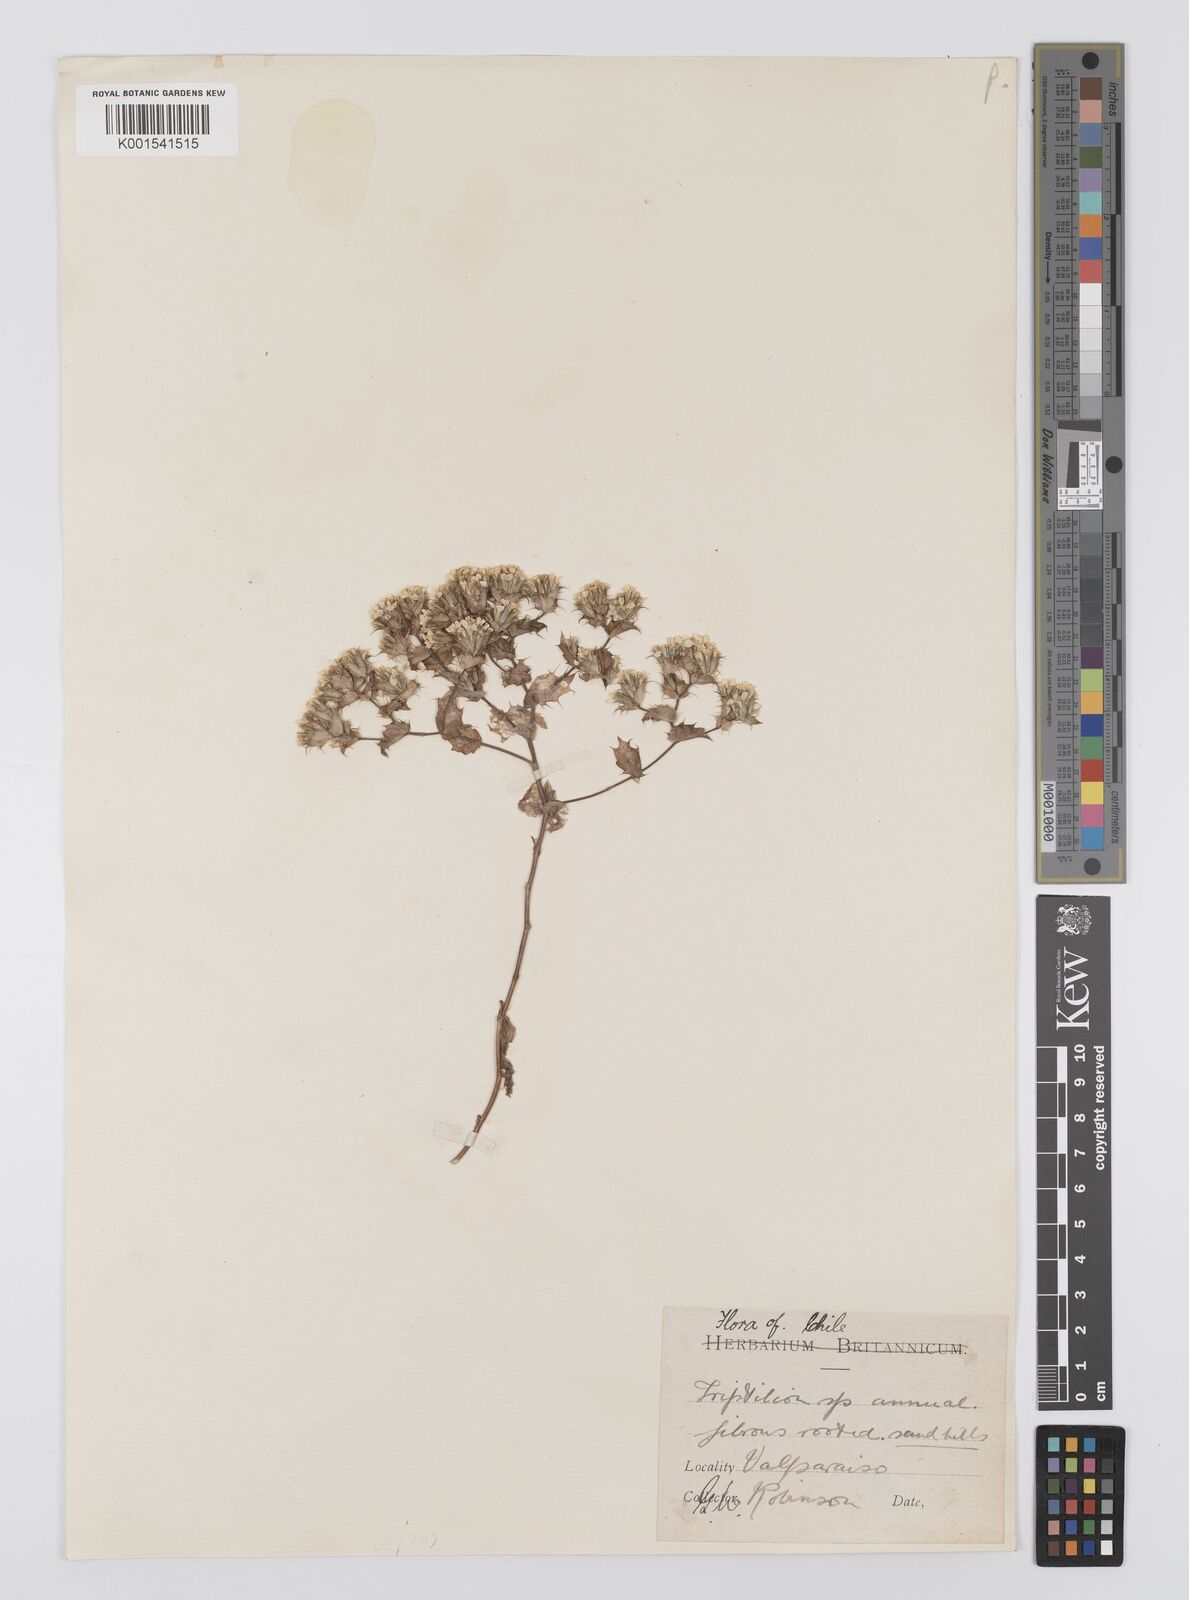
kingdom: Plantae
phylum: Tracheophyta
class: Magnoliopsida
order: Asterales
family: Asteraceae
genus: Triptilion
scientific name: Triptilion cordifolium
